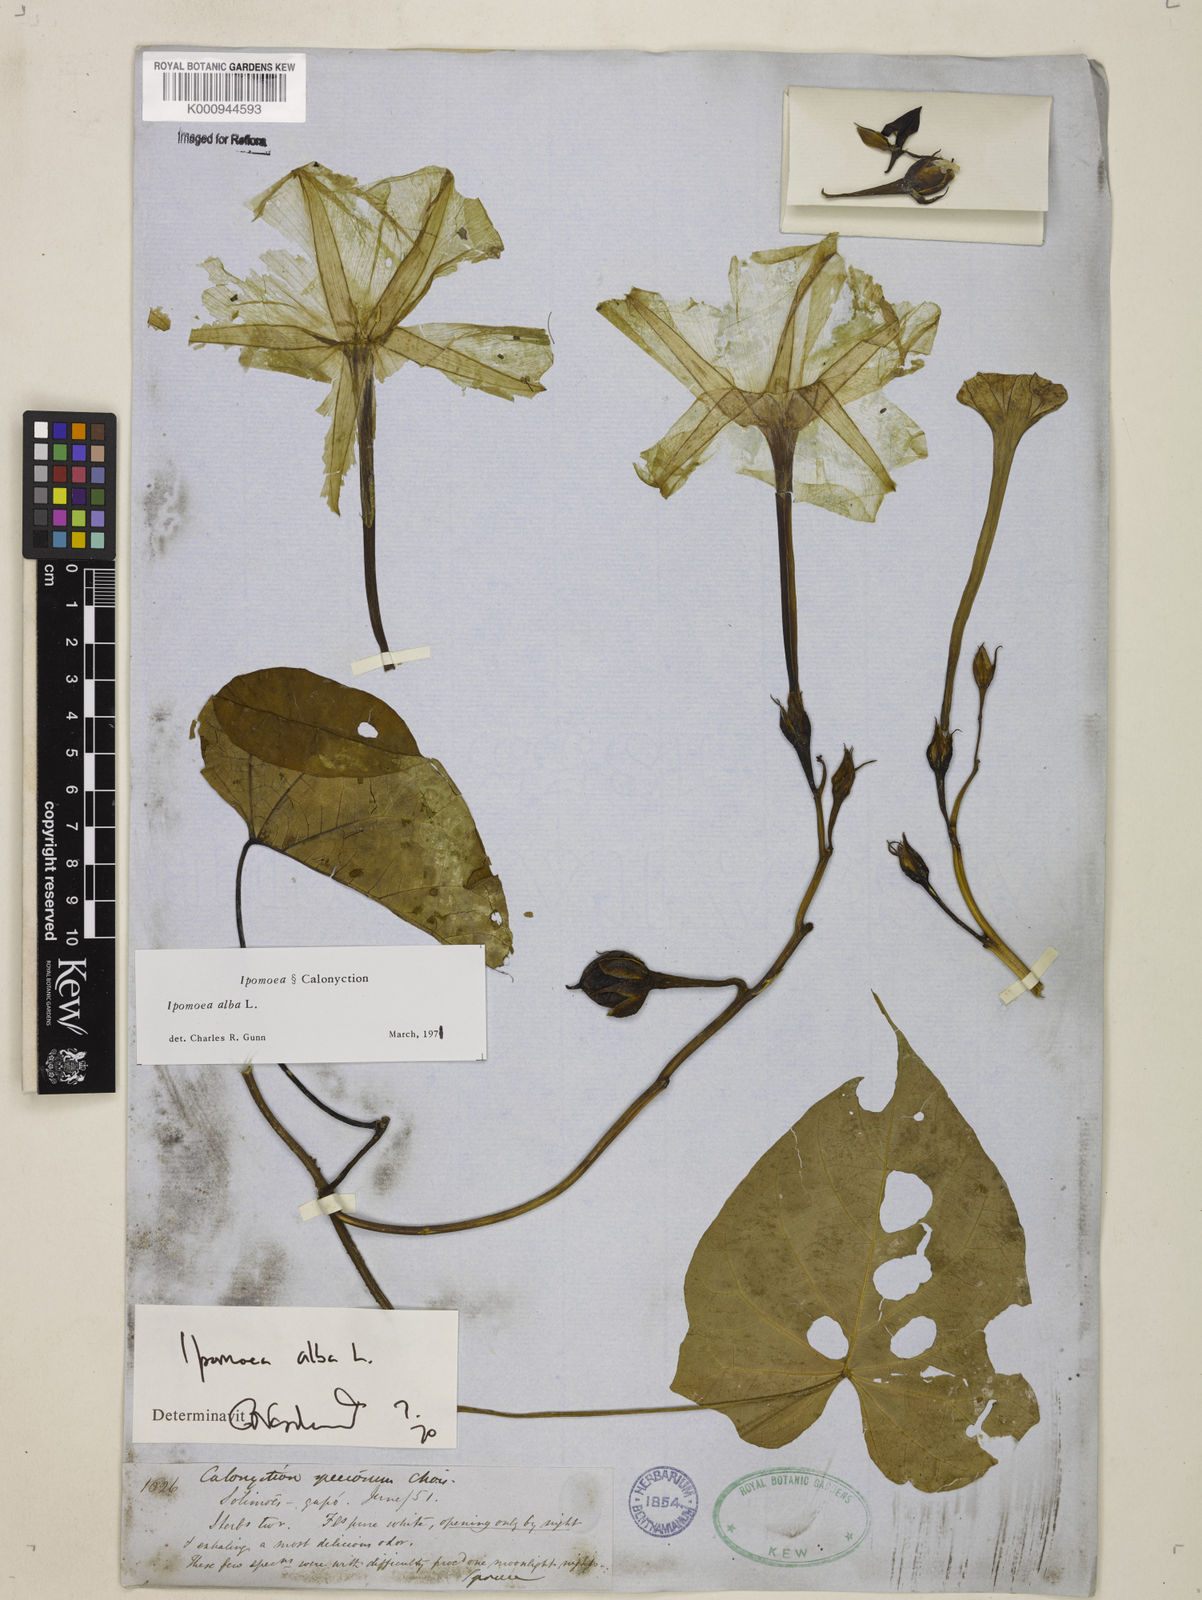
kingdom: Plantae
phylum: Tracheophyta
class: Magnoliopsida
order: Solanales
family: Convolvulaceae
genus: Ipomoea
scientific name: Ipomoea alba
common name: Moonflower
